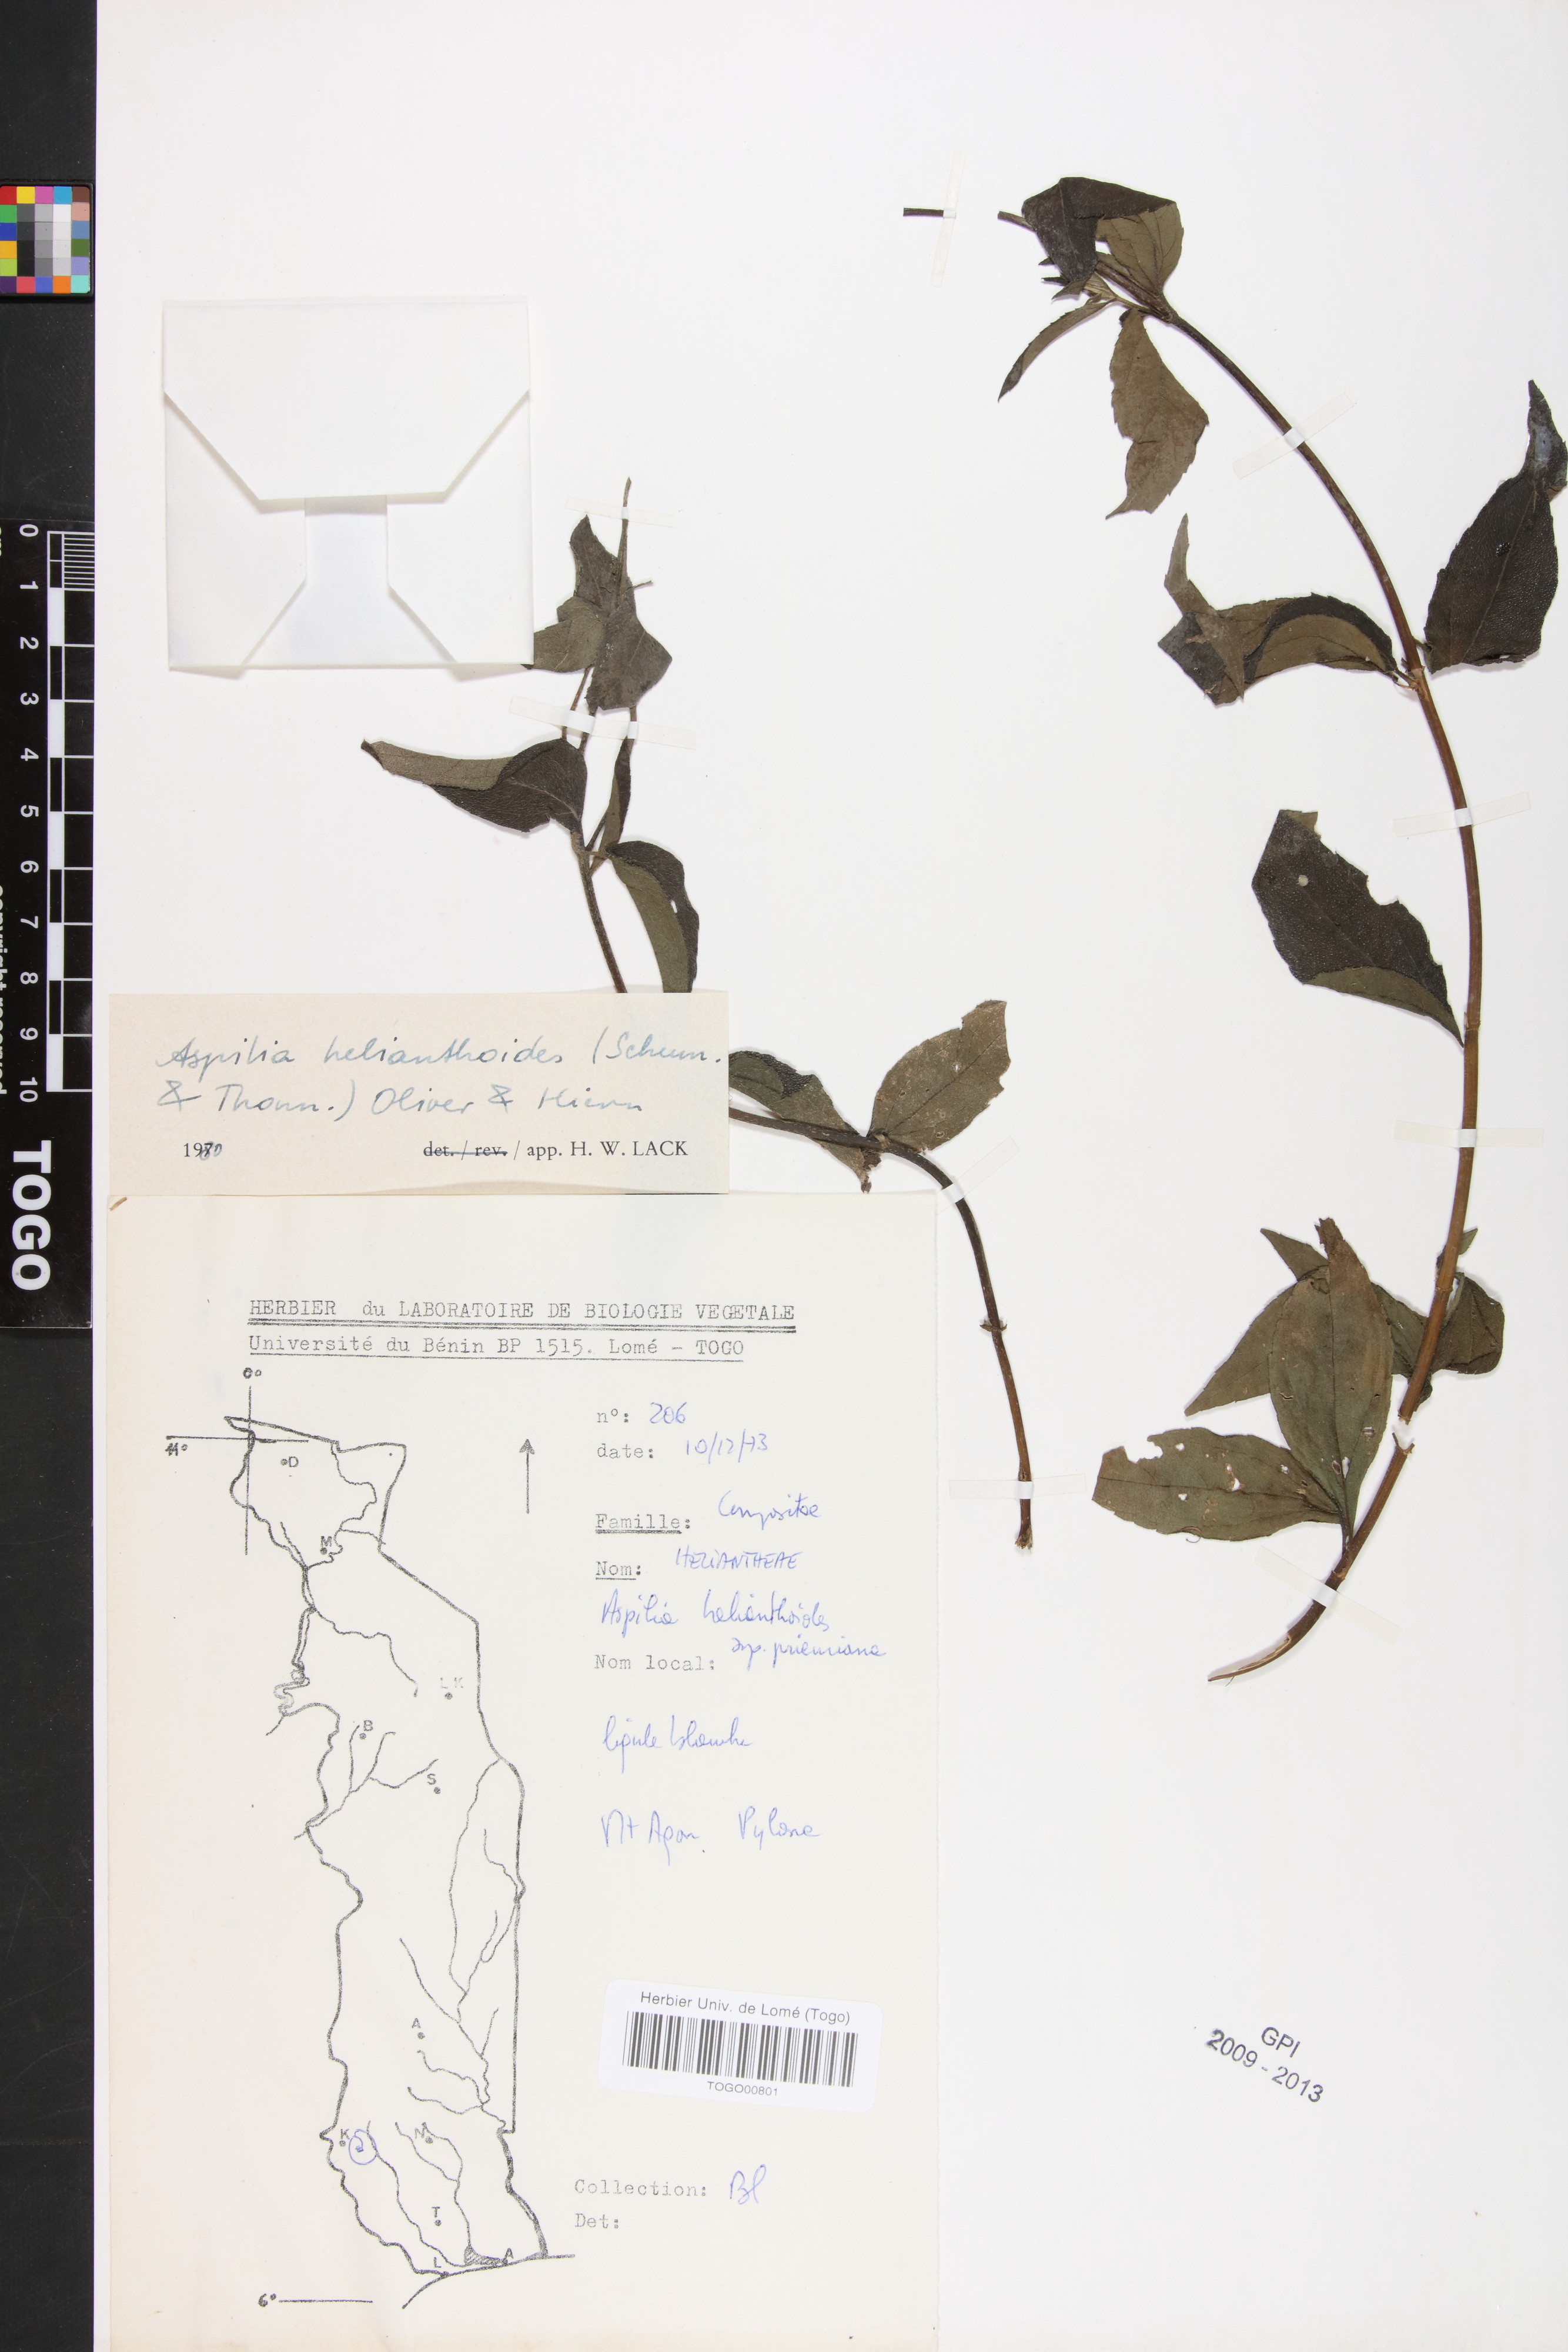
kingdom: Plantae
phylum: Tracheophyta
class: Magnoliopsida
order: Asterales
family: Asteraceae
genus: Aspilia
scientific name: Aspilia helianthoides
